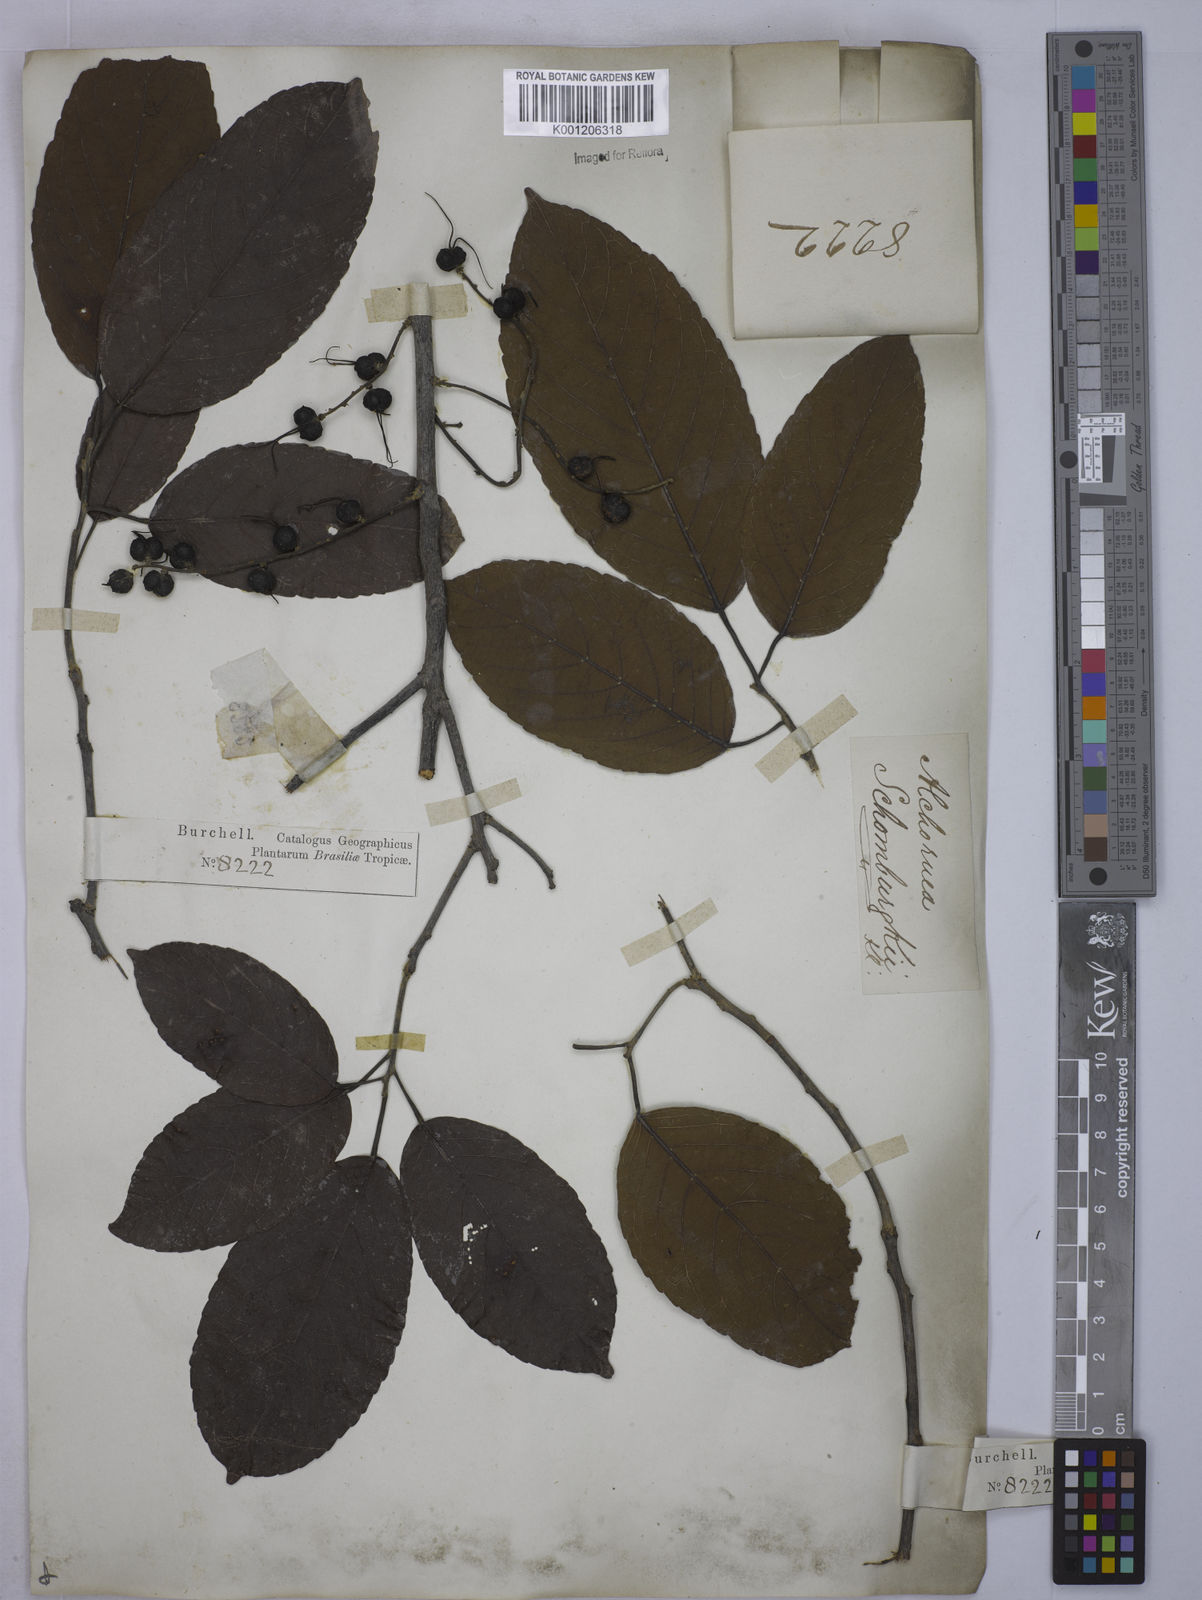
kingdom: Plantae
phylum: Tracheophyta
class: Magnoliopsida
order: Malpighiales
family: Euphorbiaceae
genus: Alchornea
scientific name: Alchornea discolor
